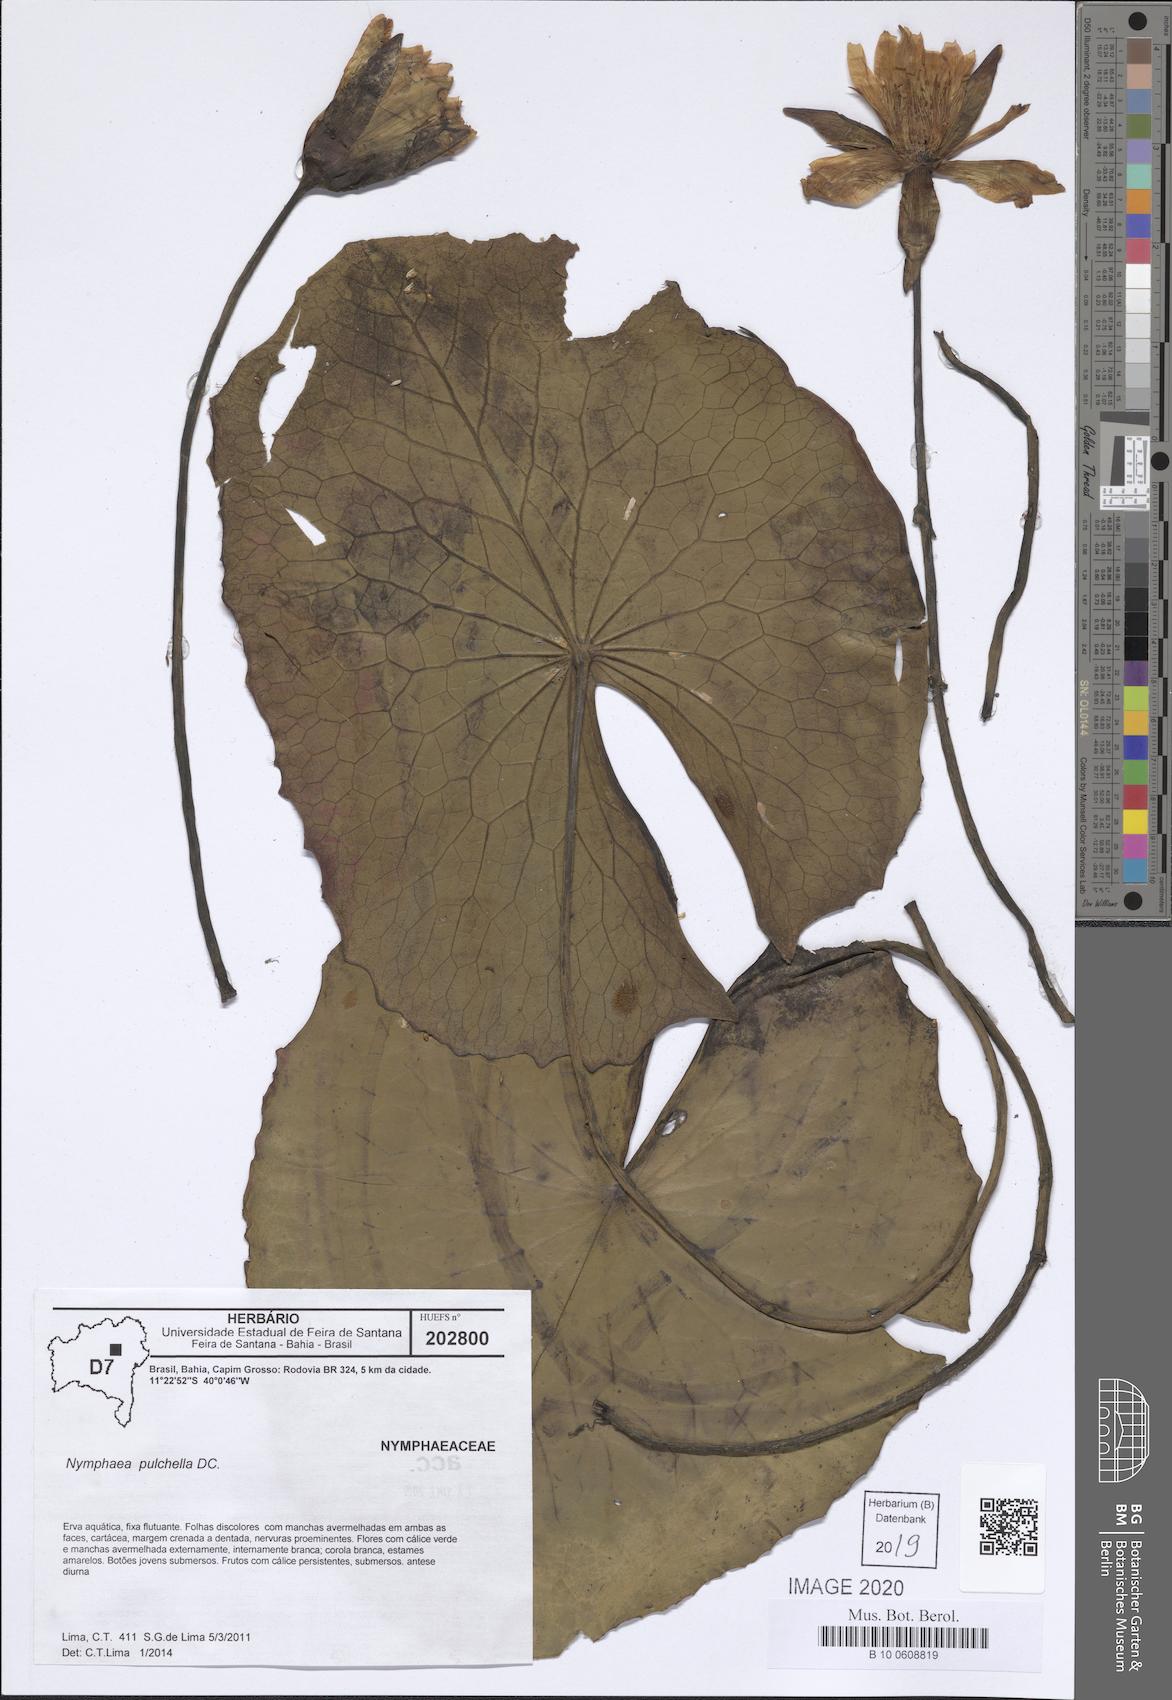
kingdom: Plantae
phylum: Tracheophyta
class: Magnoliopsida
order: Nymphaeales
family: Nymphaeaceae
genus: Nymphaea
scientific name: Nymphaea pulchella
